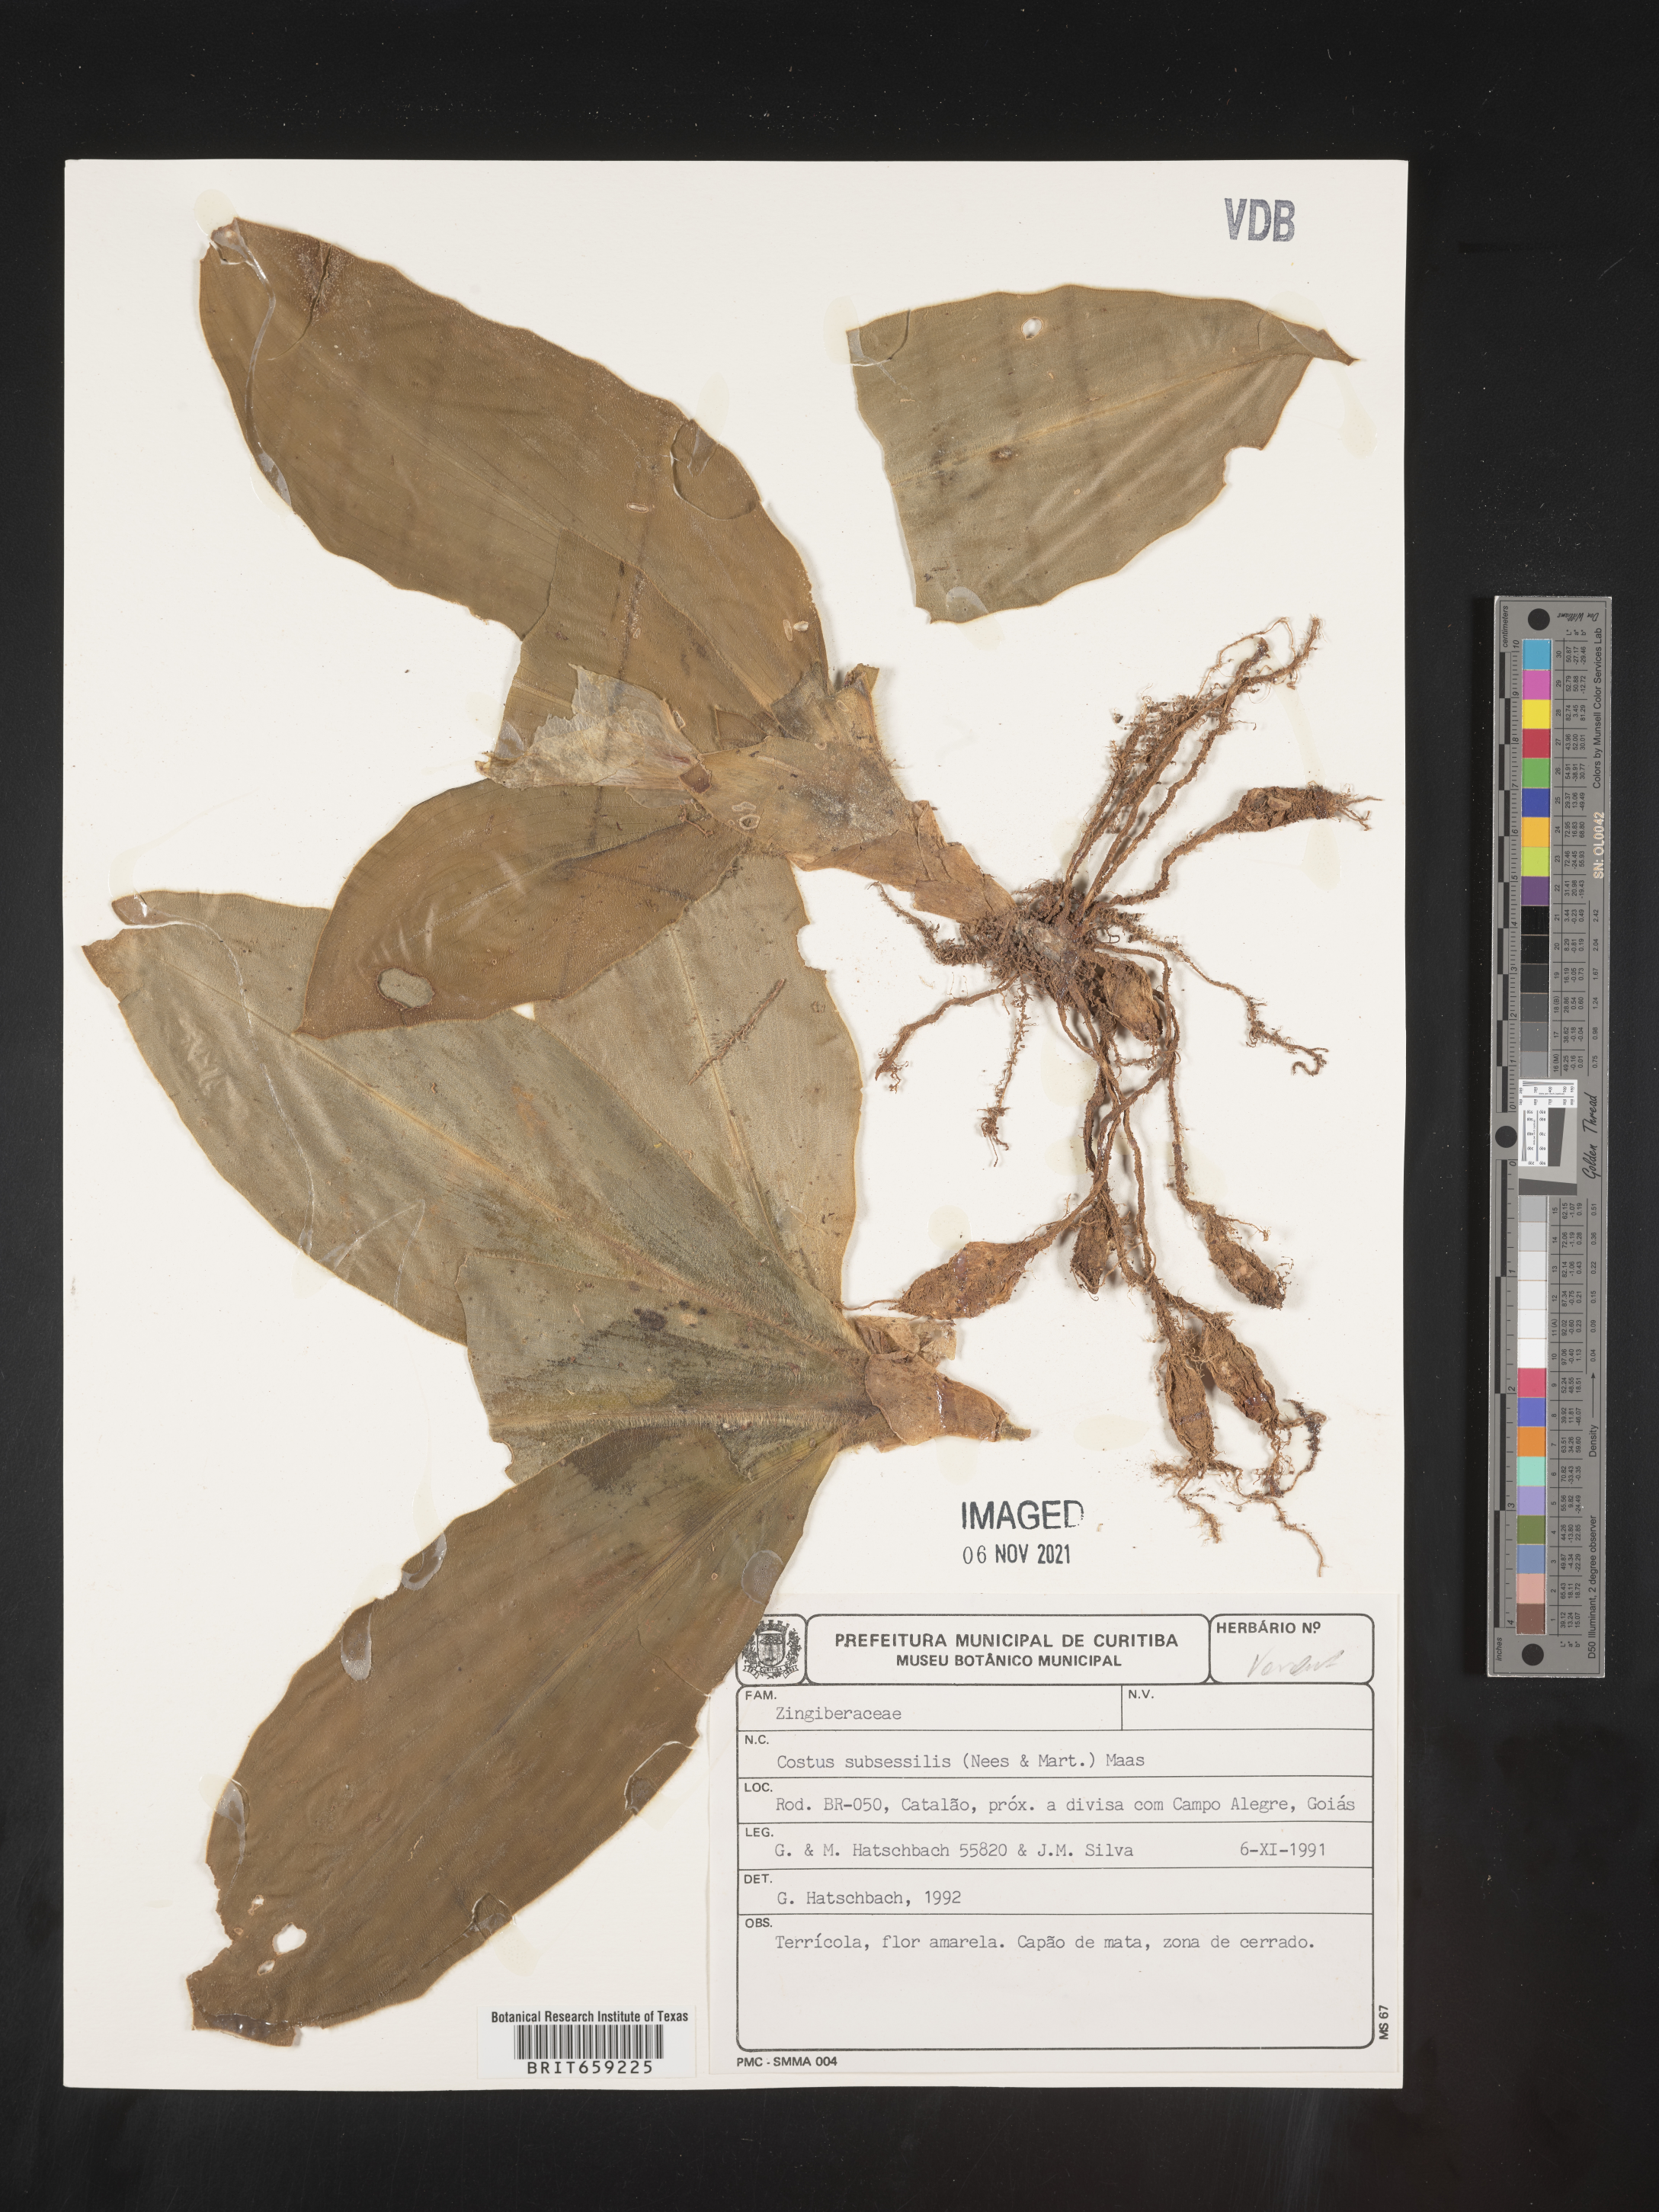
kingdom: Plantae
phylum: Tracheophyta
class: Liliopsida
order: Zingiberales
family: Costaceae
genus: Chamaecostus
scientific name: Chamaecostus subsessilis
